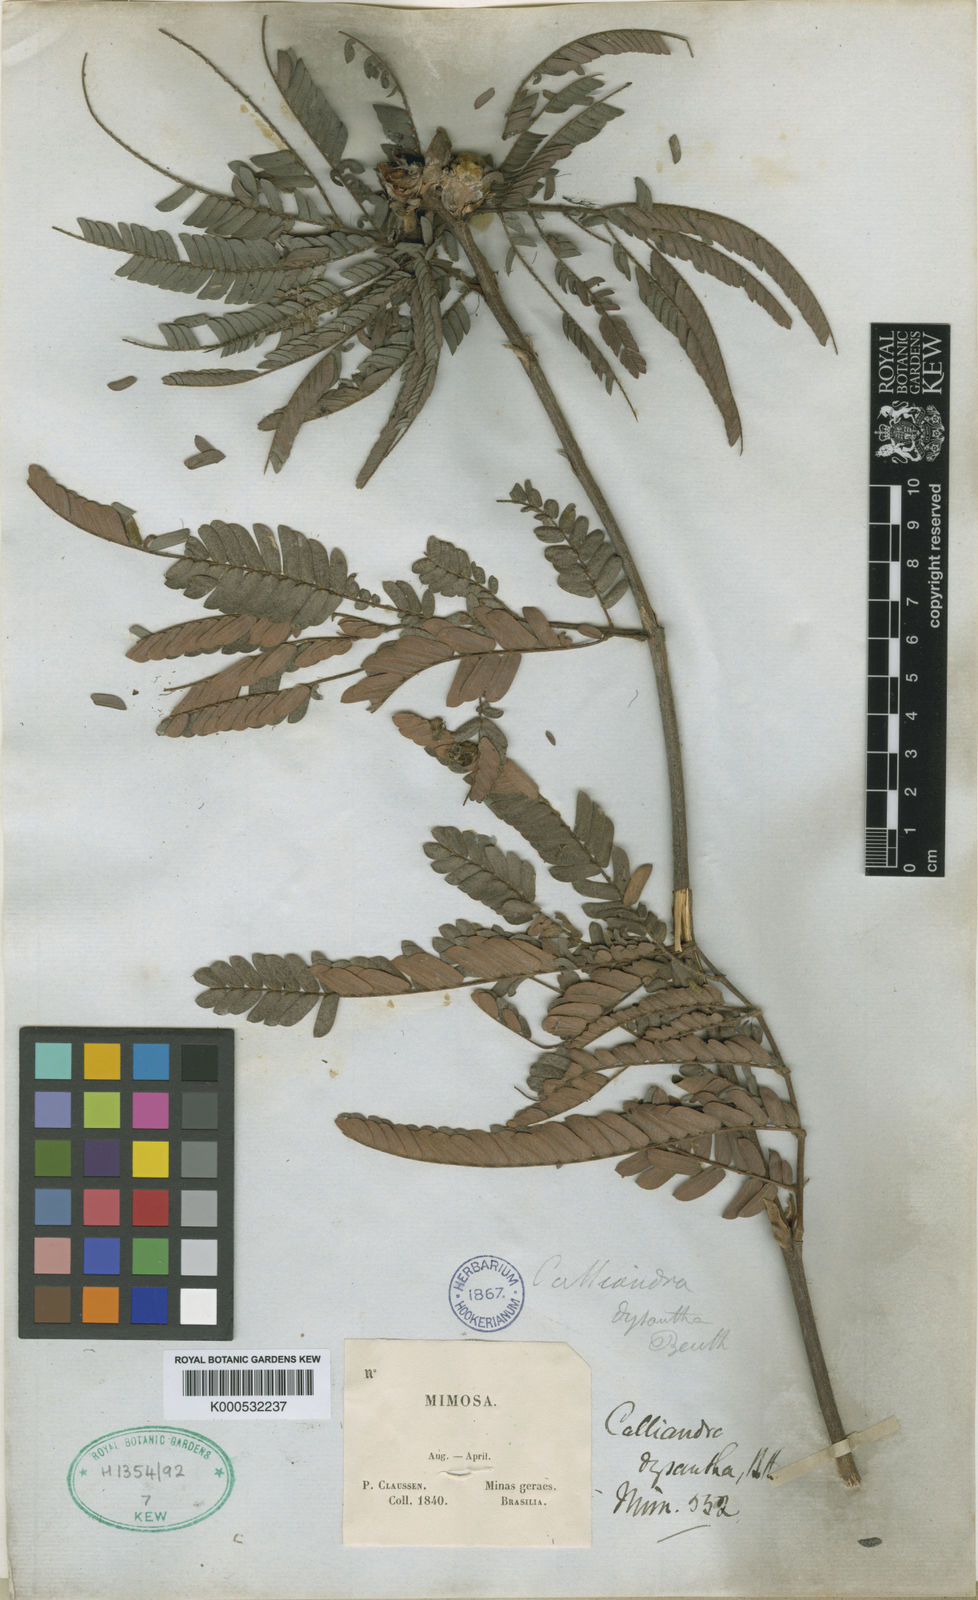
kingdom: Plantae
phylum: Tracheophyta
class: Magnoliopsida
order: Fabales
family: Fabaceae
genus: Calliandra
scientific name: Calliandra dysantha
